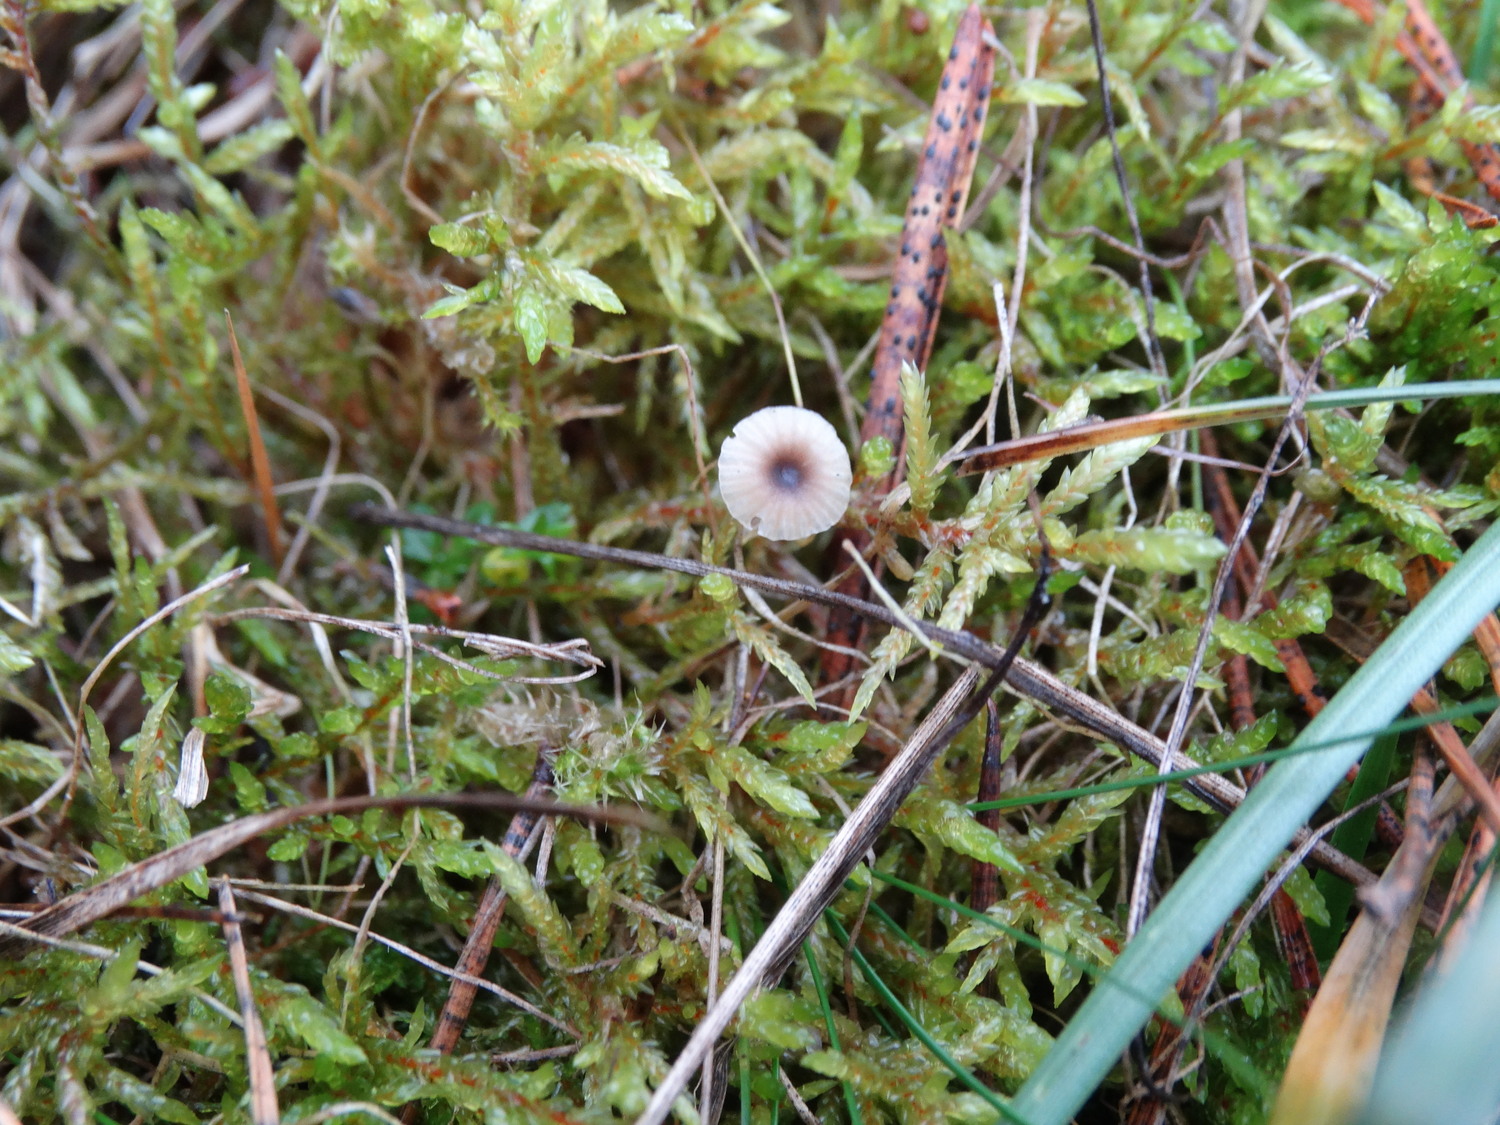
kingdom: Fungi
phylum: Basidiomycota
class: Agaricomycetes
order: Hymenochaetales
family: Rickenellaceae
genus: Rickenella
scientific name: Rickenella swartzii
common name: finstokket mosnavlehat
